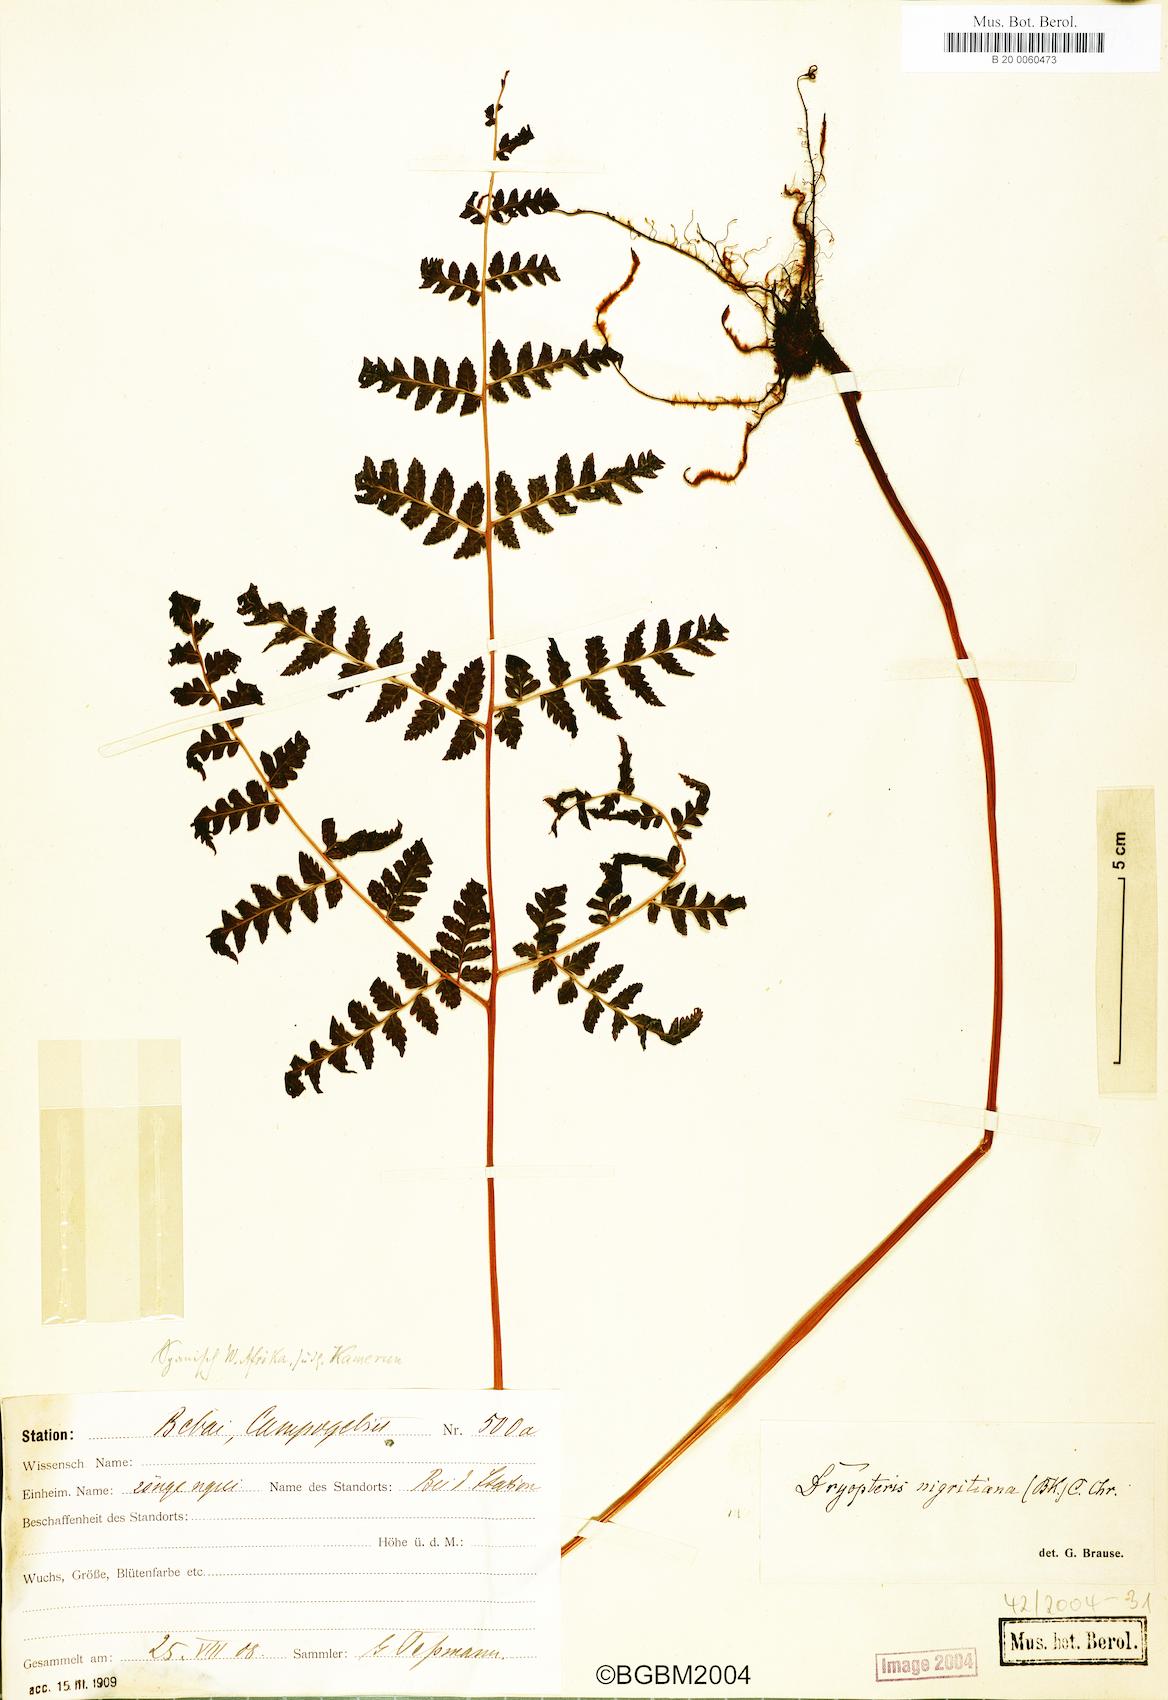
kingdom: Plantae
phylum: Tracheophyta
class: Polypodiopsida
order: Polypodiales
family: Dryopteridaceae
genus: Parapolystichum
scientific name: Parapolystichum nigritianum
